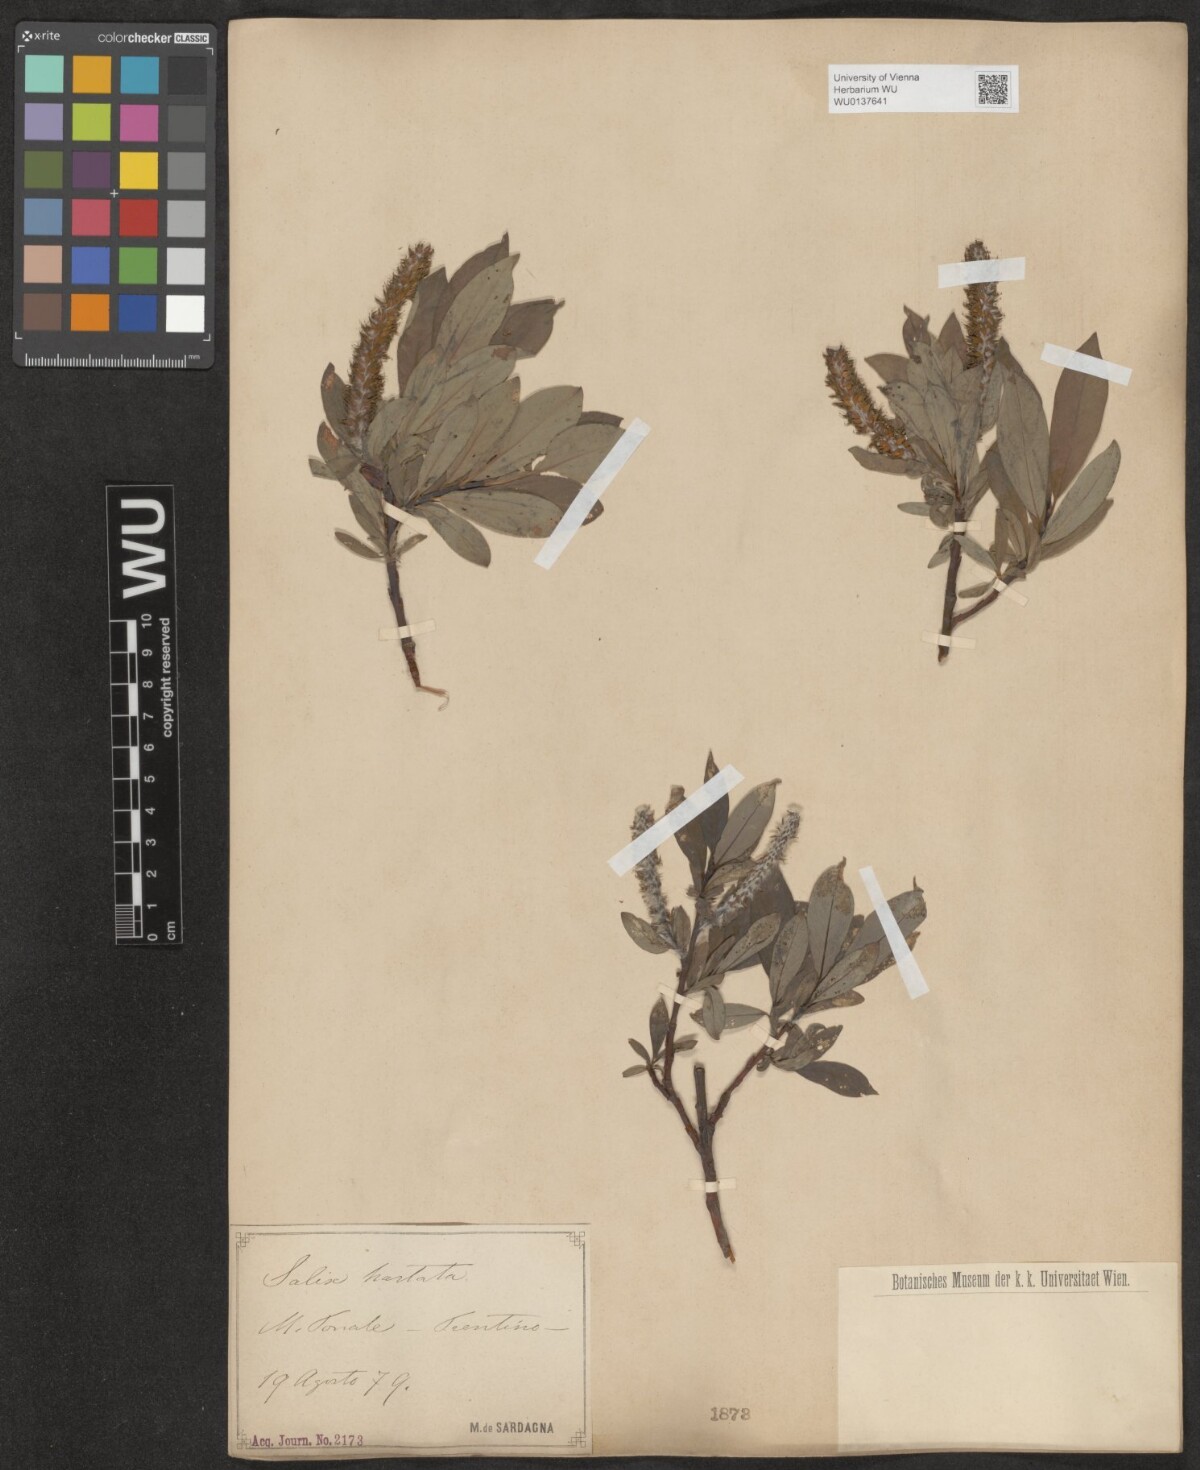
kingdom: Plantae
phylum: Tracheophyta
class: Magnoliopsida
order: Malpighiales
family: Salicaceae
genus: Salix
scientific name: Salix hastata
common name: Halberd willow
